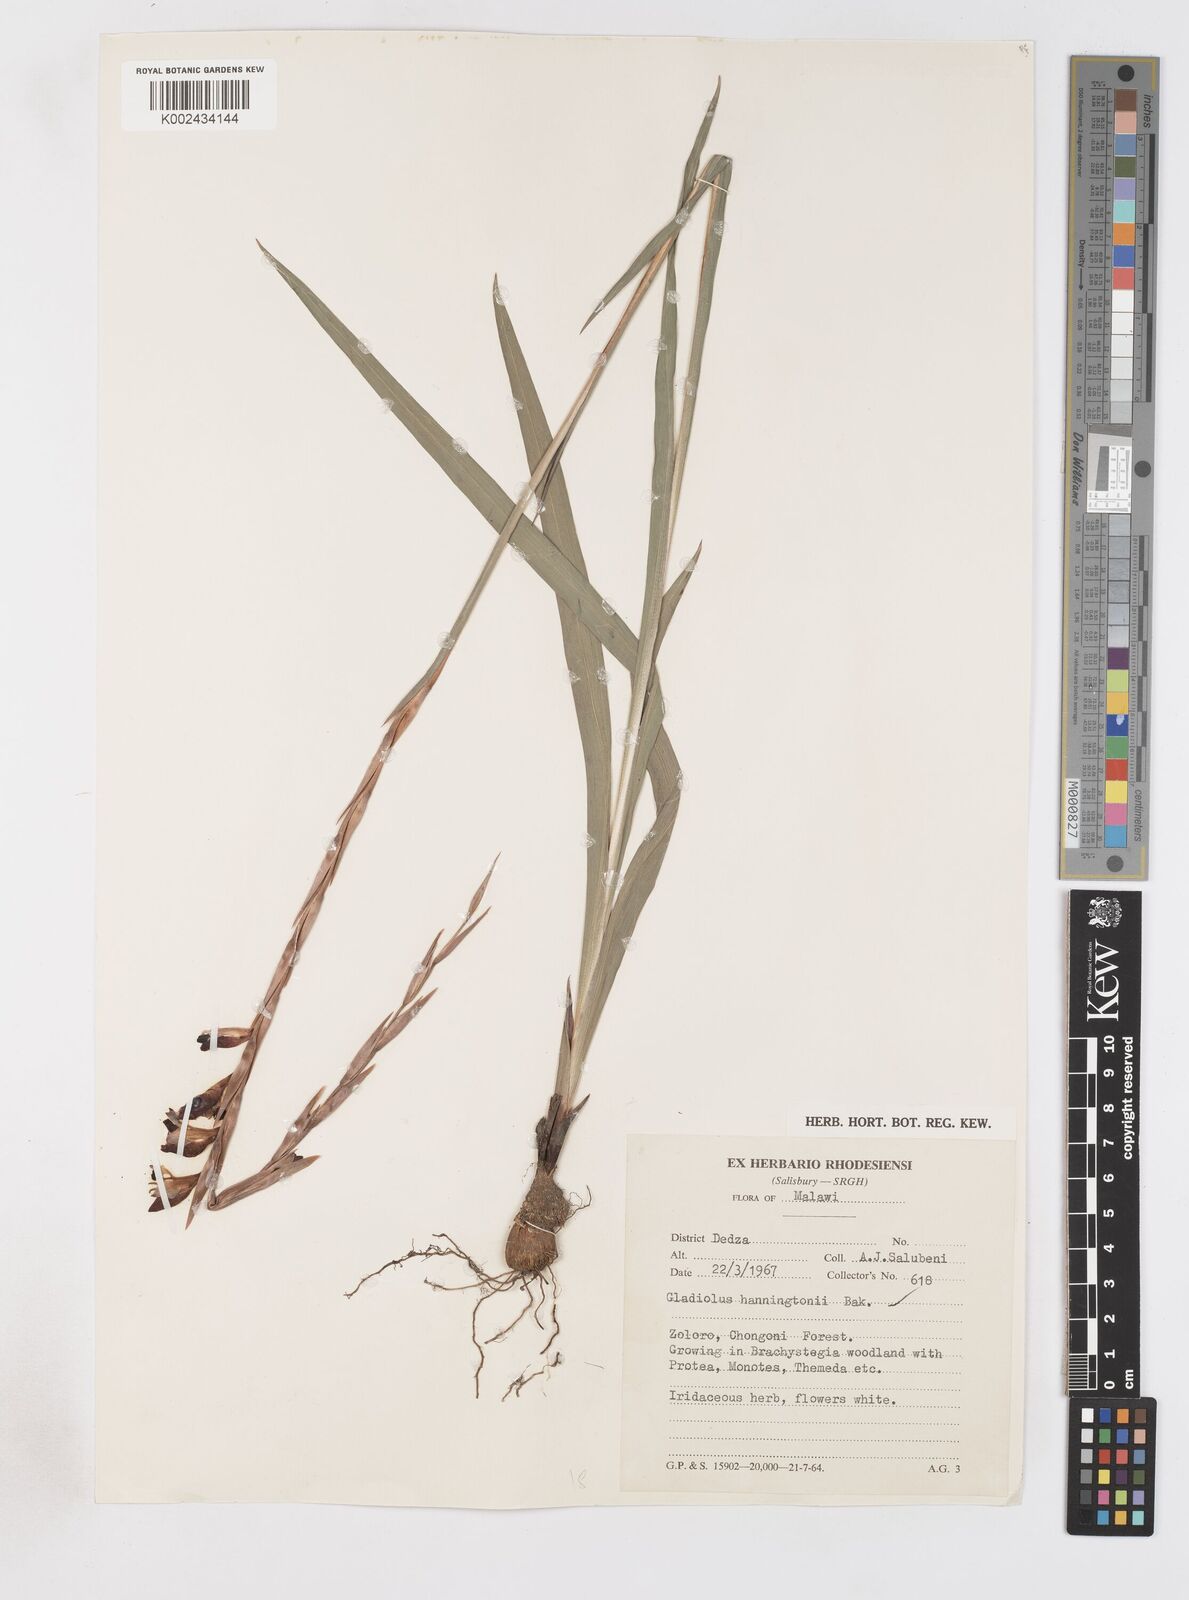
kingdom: Plantae
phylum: Tracheophyta
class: Liliopsida
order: Asparagales
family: Iridaceae
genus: Gladiolus
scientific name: Gladiolus gregarius
